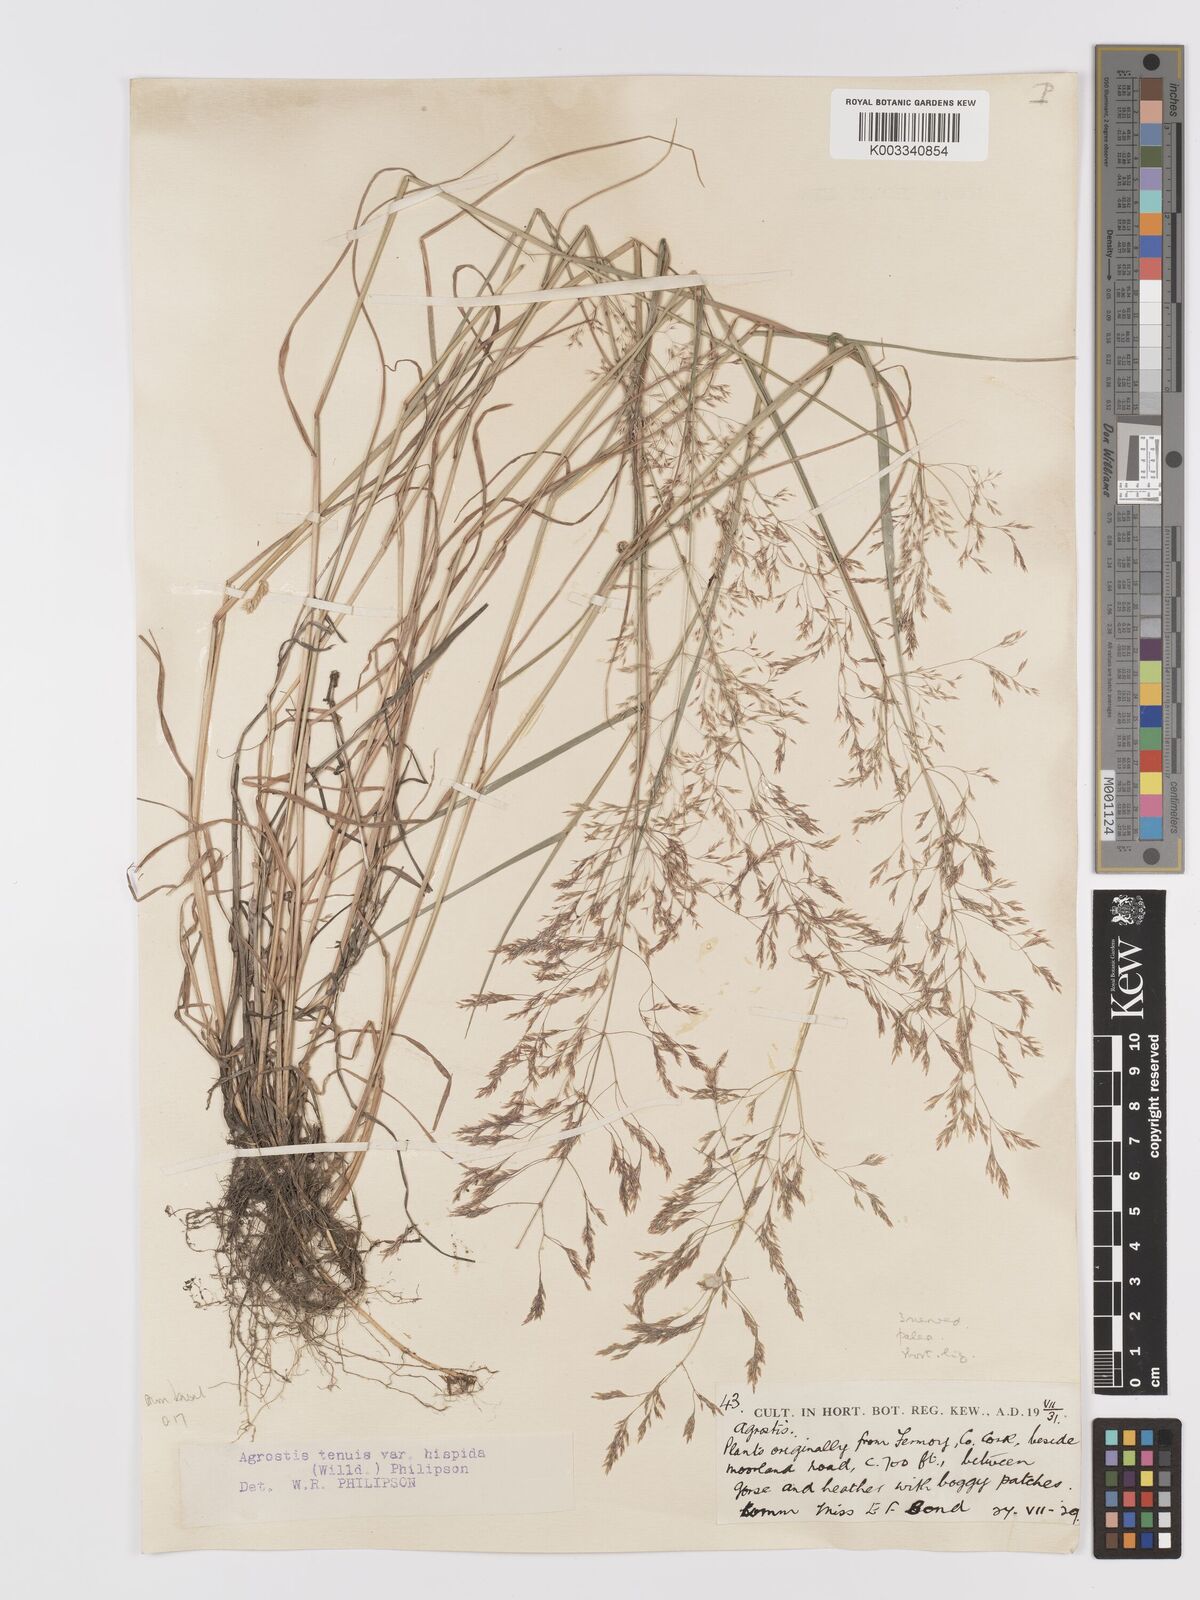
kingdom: Plantae
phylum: Tracheophyta
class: Liliopsida
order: Poales
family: Poaceae
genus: Agrostis
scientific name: Agrostis capillaris
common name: Colonial bentgrass
